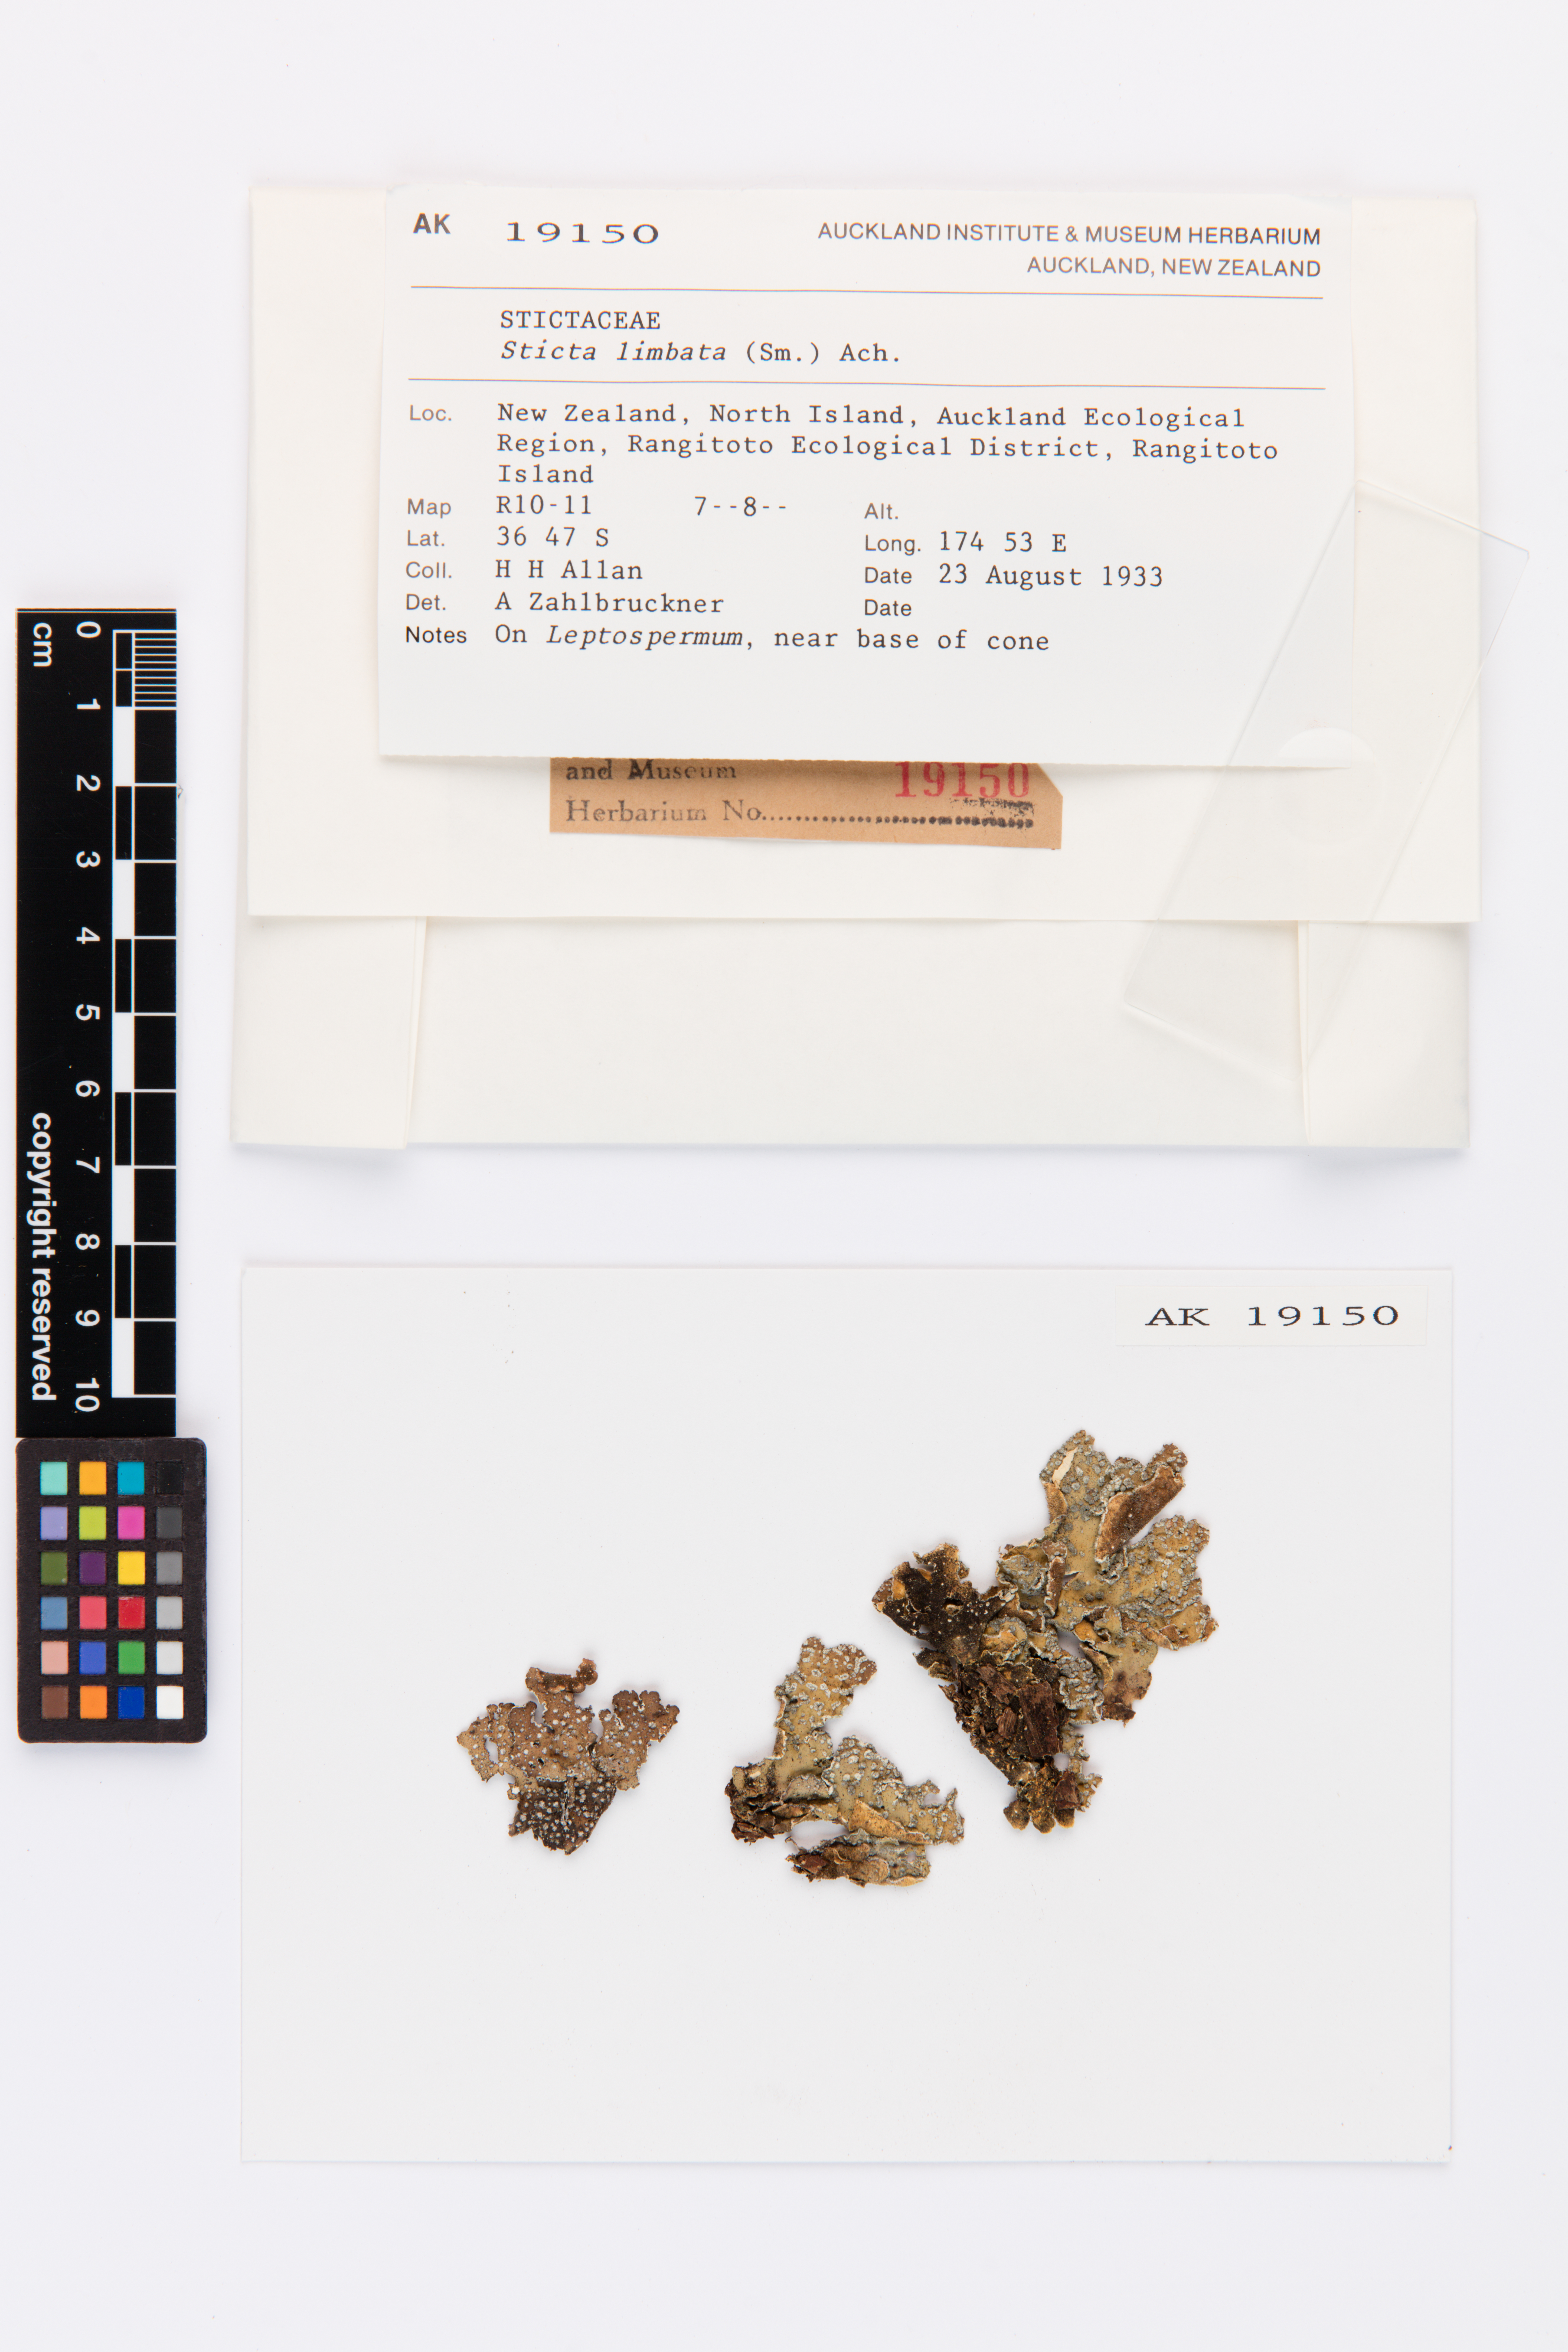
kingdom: Fungi
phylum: Ascomycota
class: Lecanoromycetes
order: Peltigerales
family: Lobariaceae
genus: Sticta
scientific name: Sticta limbata
